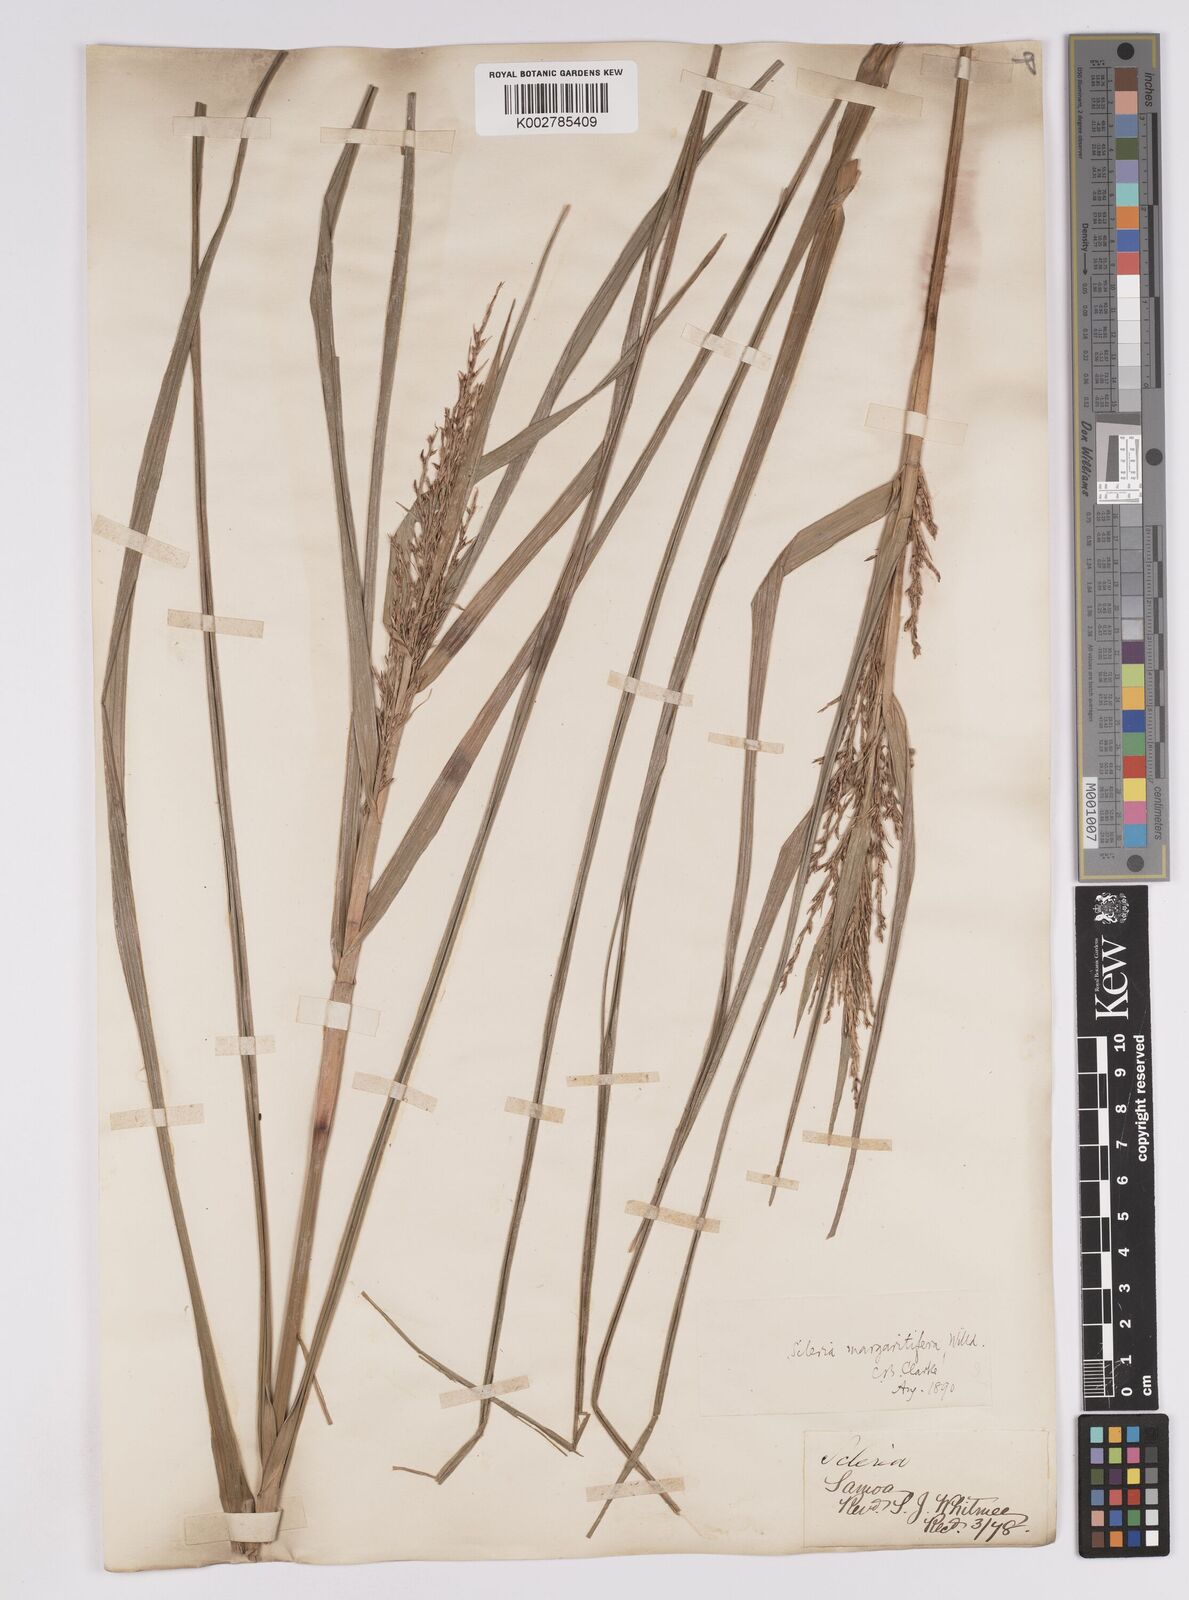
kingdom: Plantae
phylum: Tracheophyta
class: Liliopsida
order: Poales
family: Cyperaceae
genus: Scleria
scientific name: Scleria polycarpa
